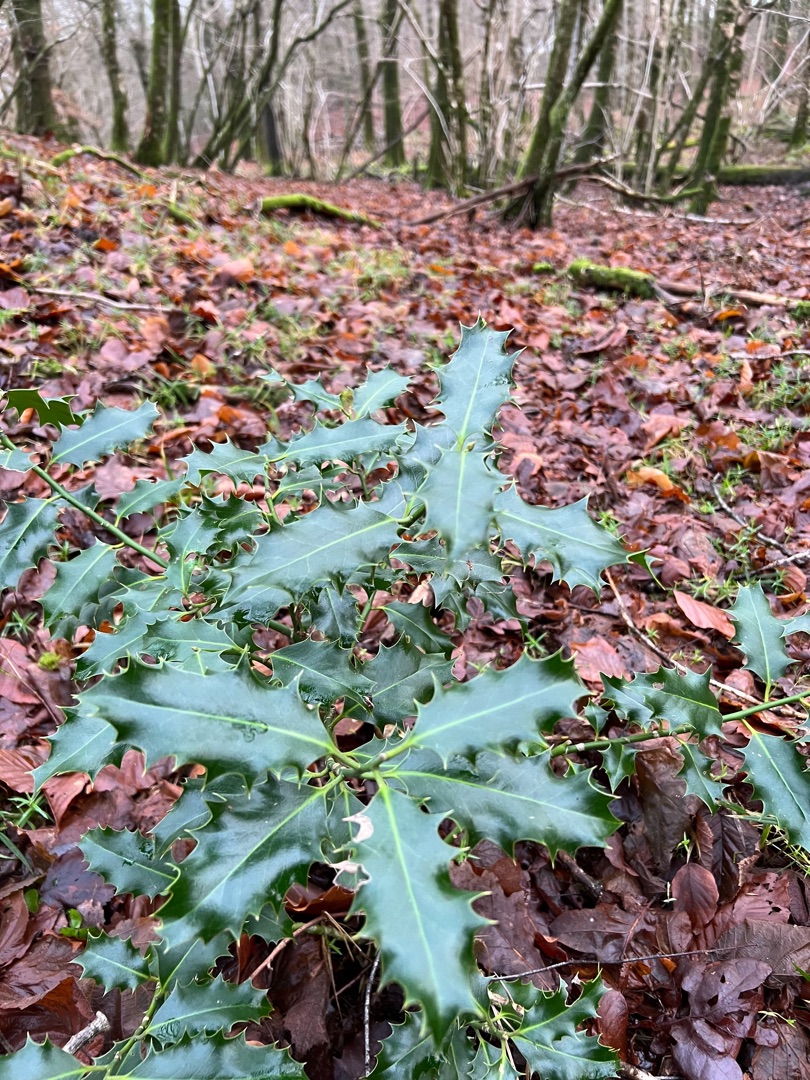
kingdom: Plantae
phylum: Tracheophyta
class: Magnoliopsida
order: Aquifoliales
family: Aquifoliaceae
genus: Ilex
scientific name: Ilex aquifolium
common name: Kristtorn
